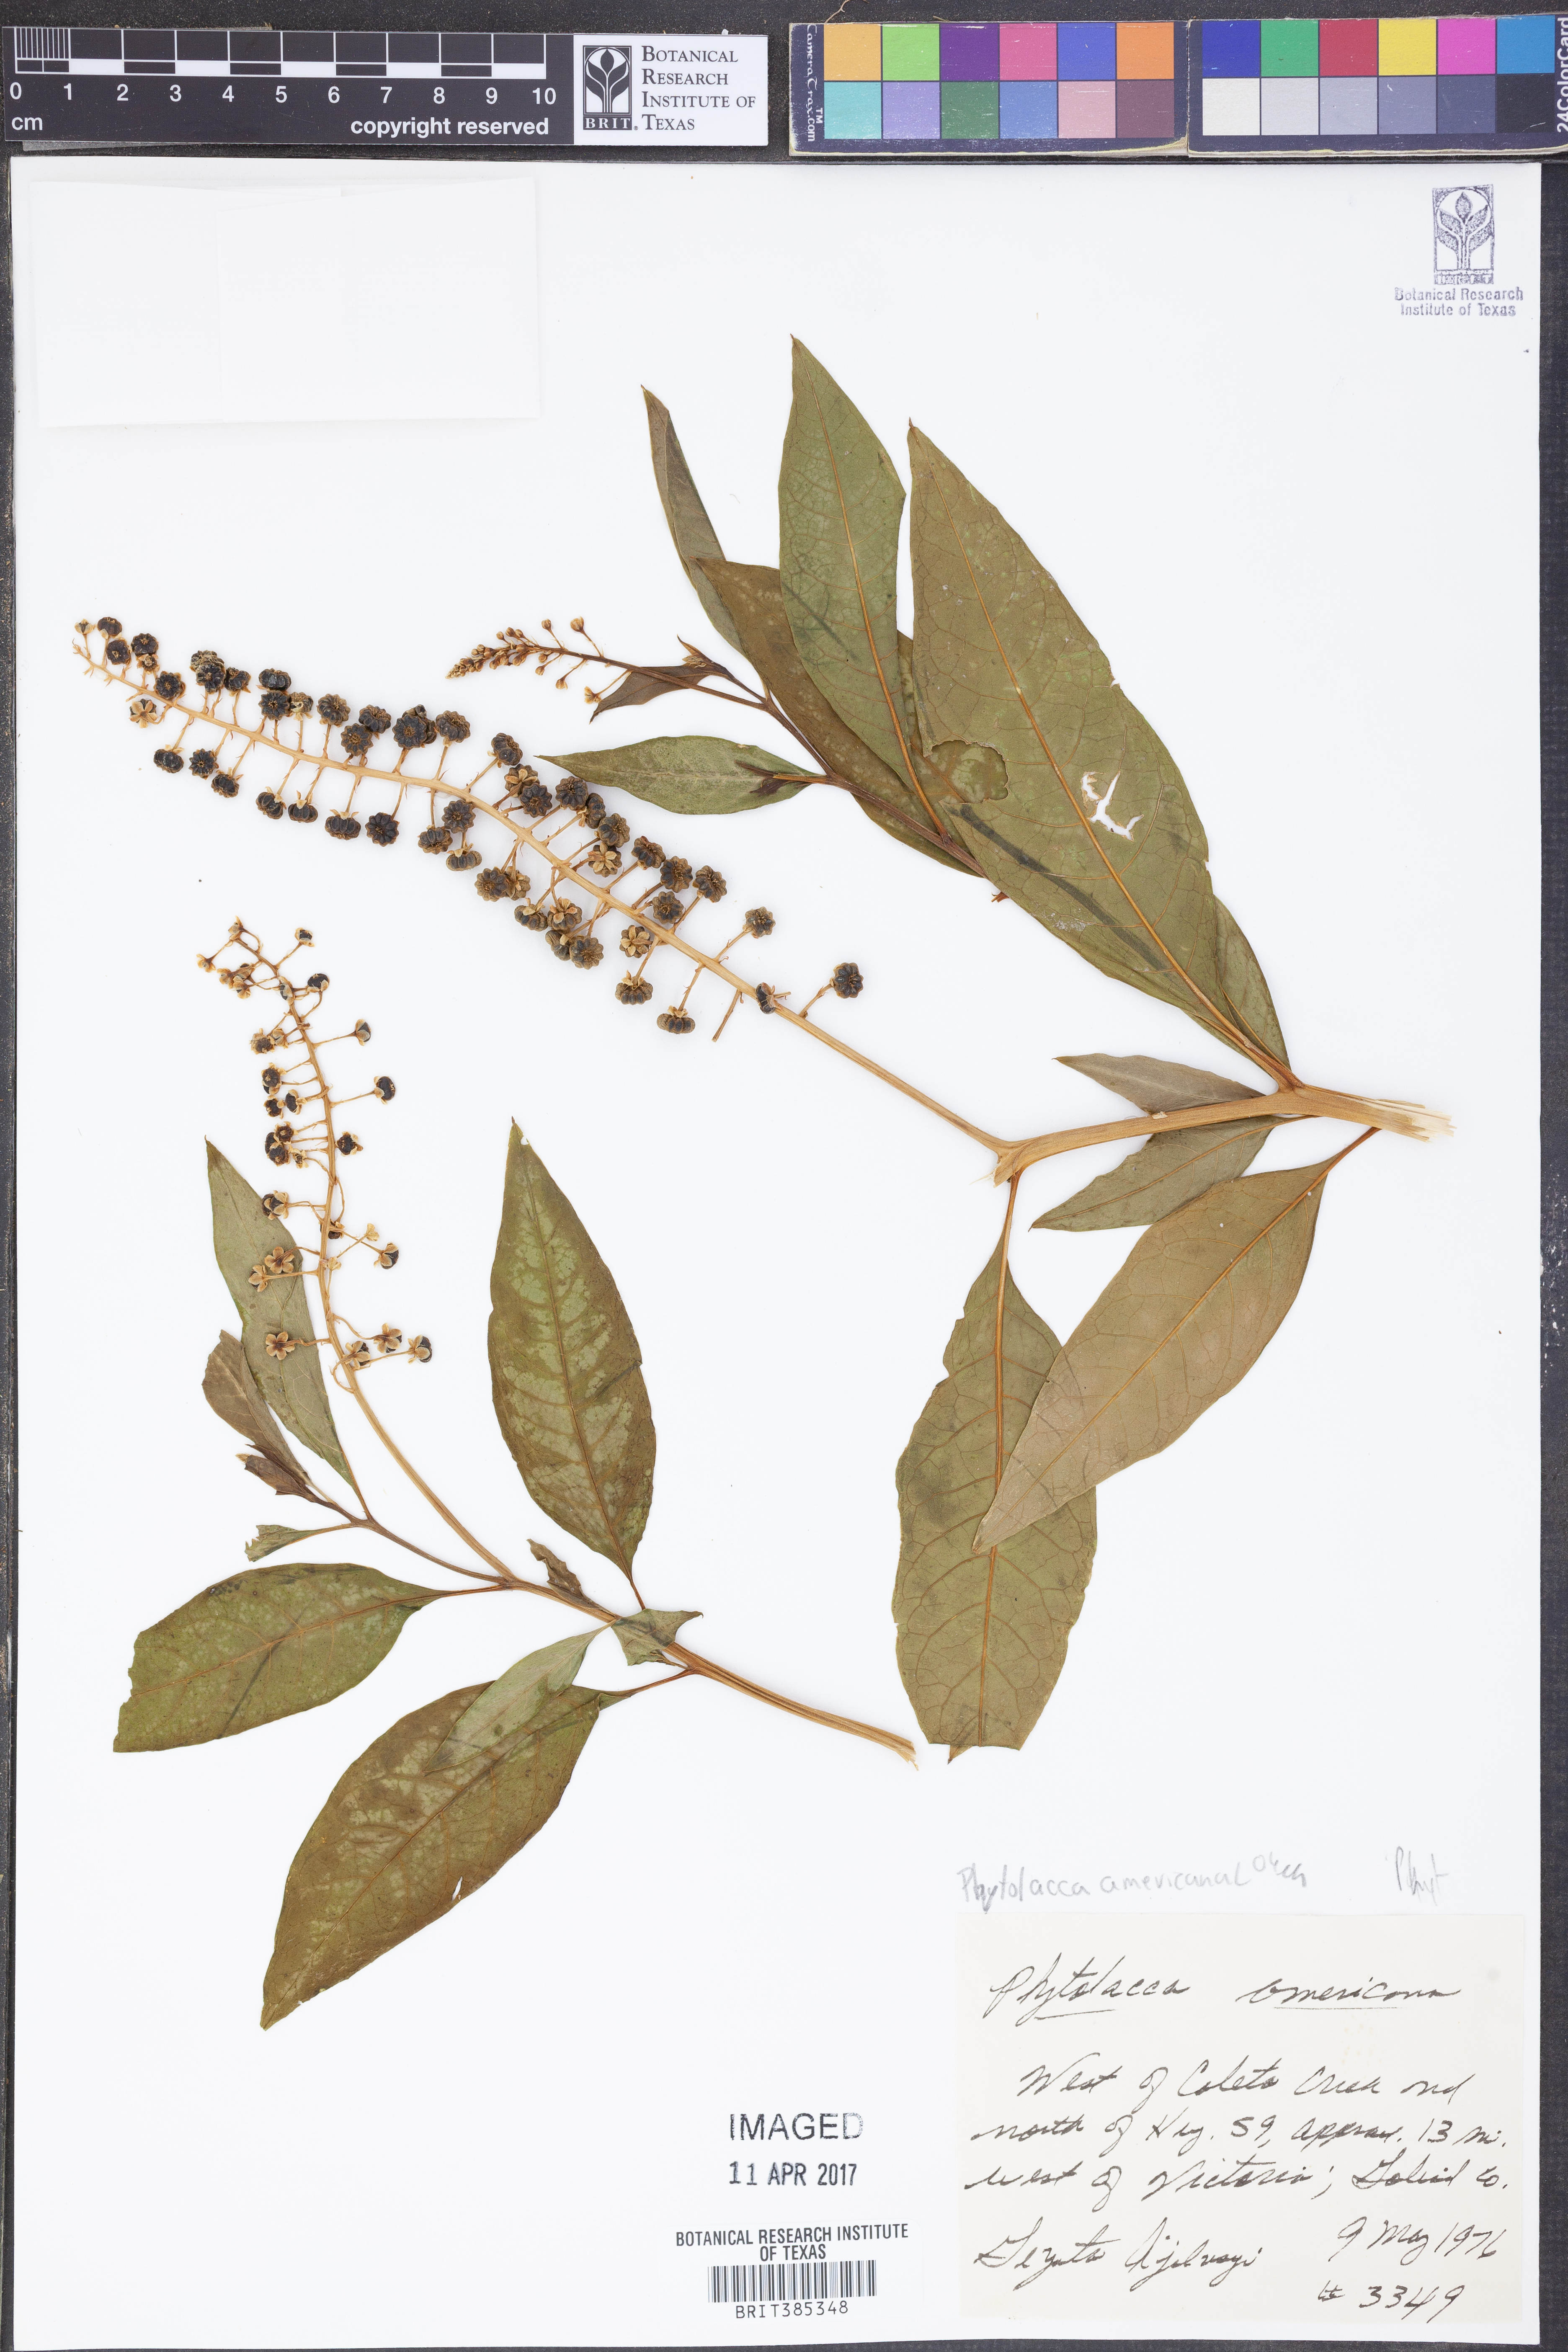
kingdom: Plantae
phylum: Tracheophyta
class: Magnoliopsida
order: Caryophyllales
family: Phytolaccaceae
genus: Phytolacca
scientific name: Phytolacca americana
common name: American pokeweed
